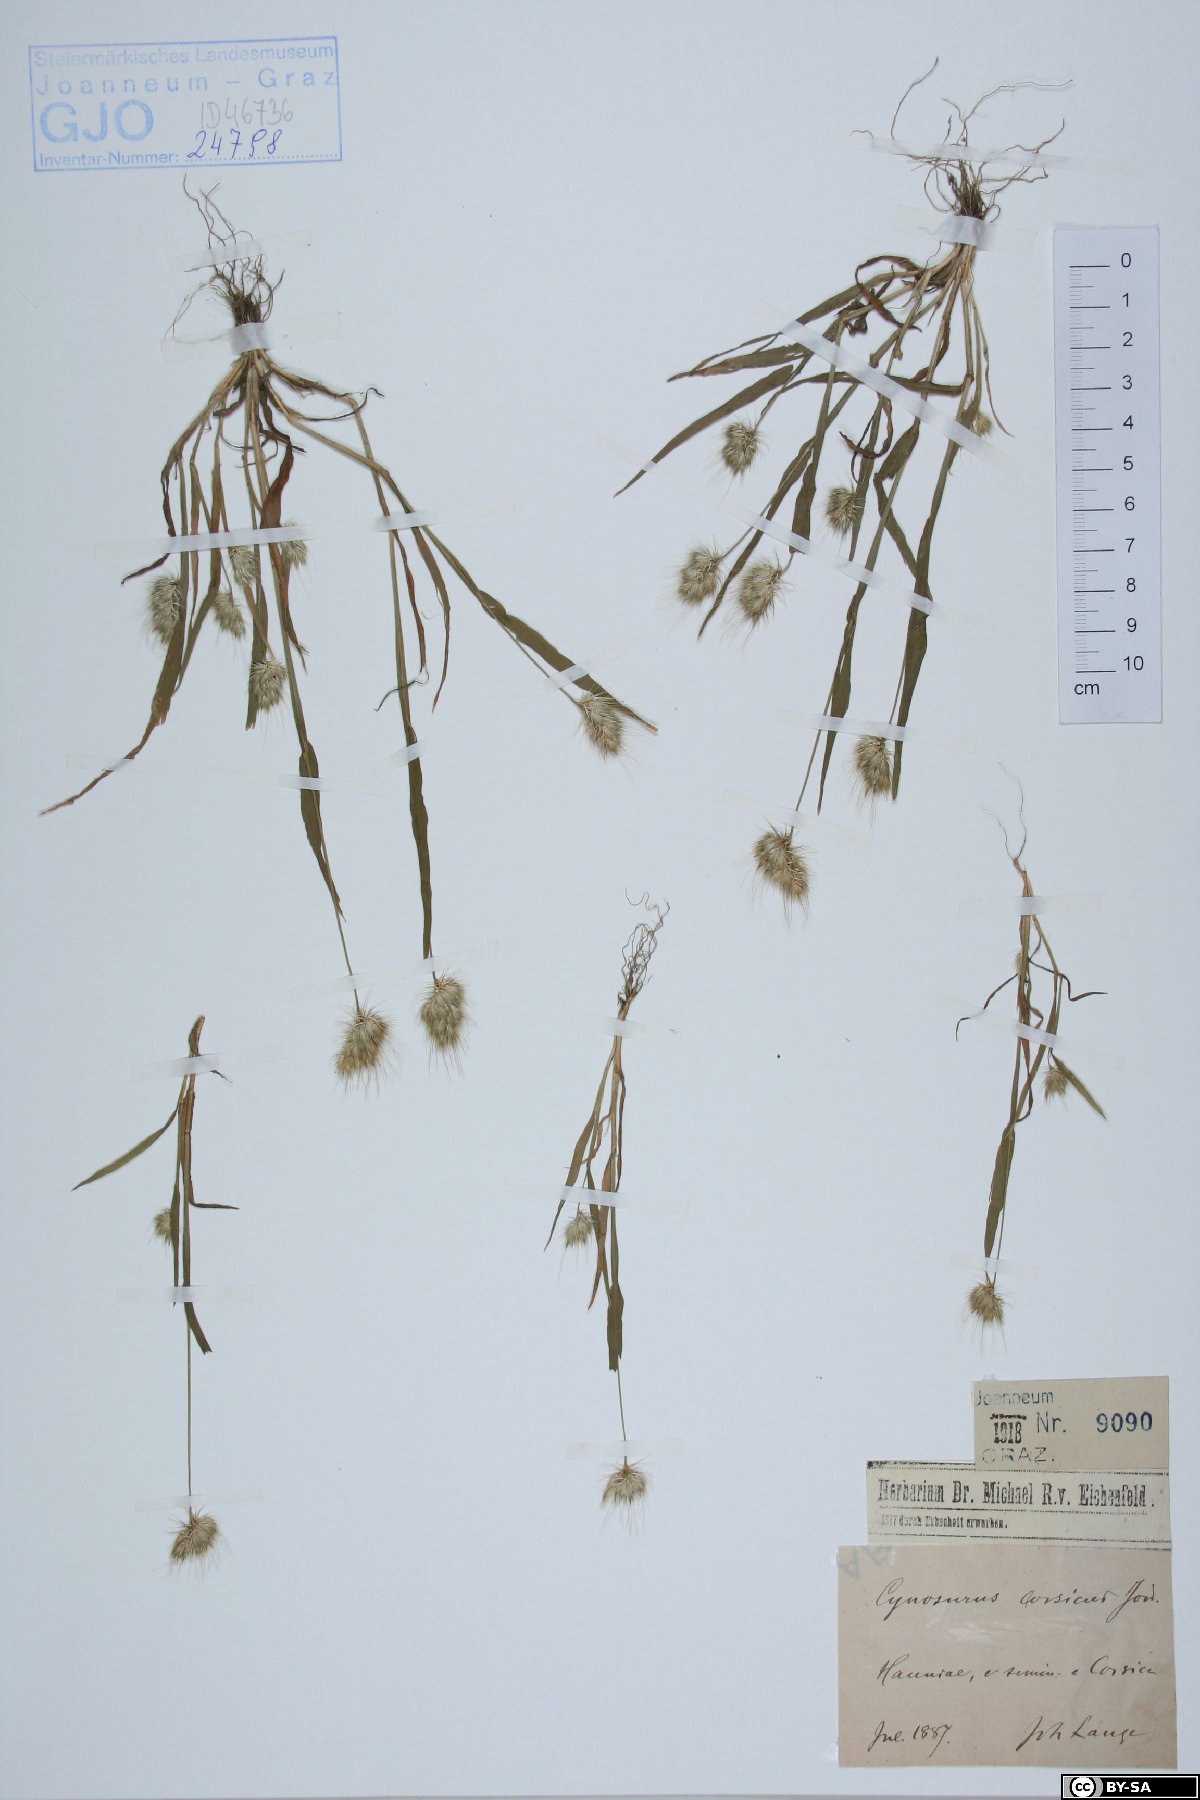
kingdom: Plantae
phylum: Tracheophyta
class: Liliopsida
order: Poales
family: Poaceae
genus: Cynosurus
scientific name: Cynosurus
